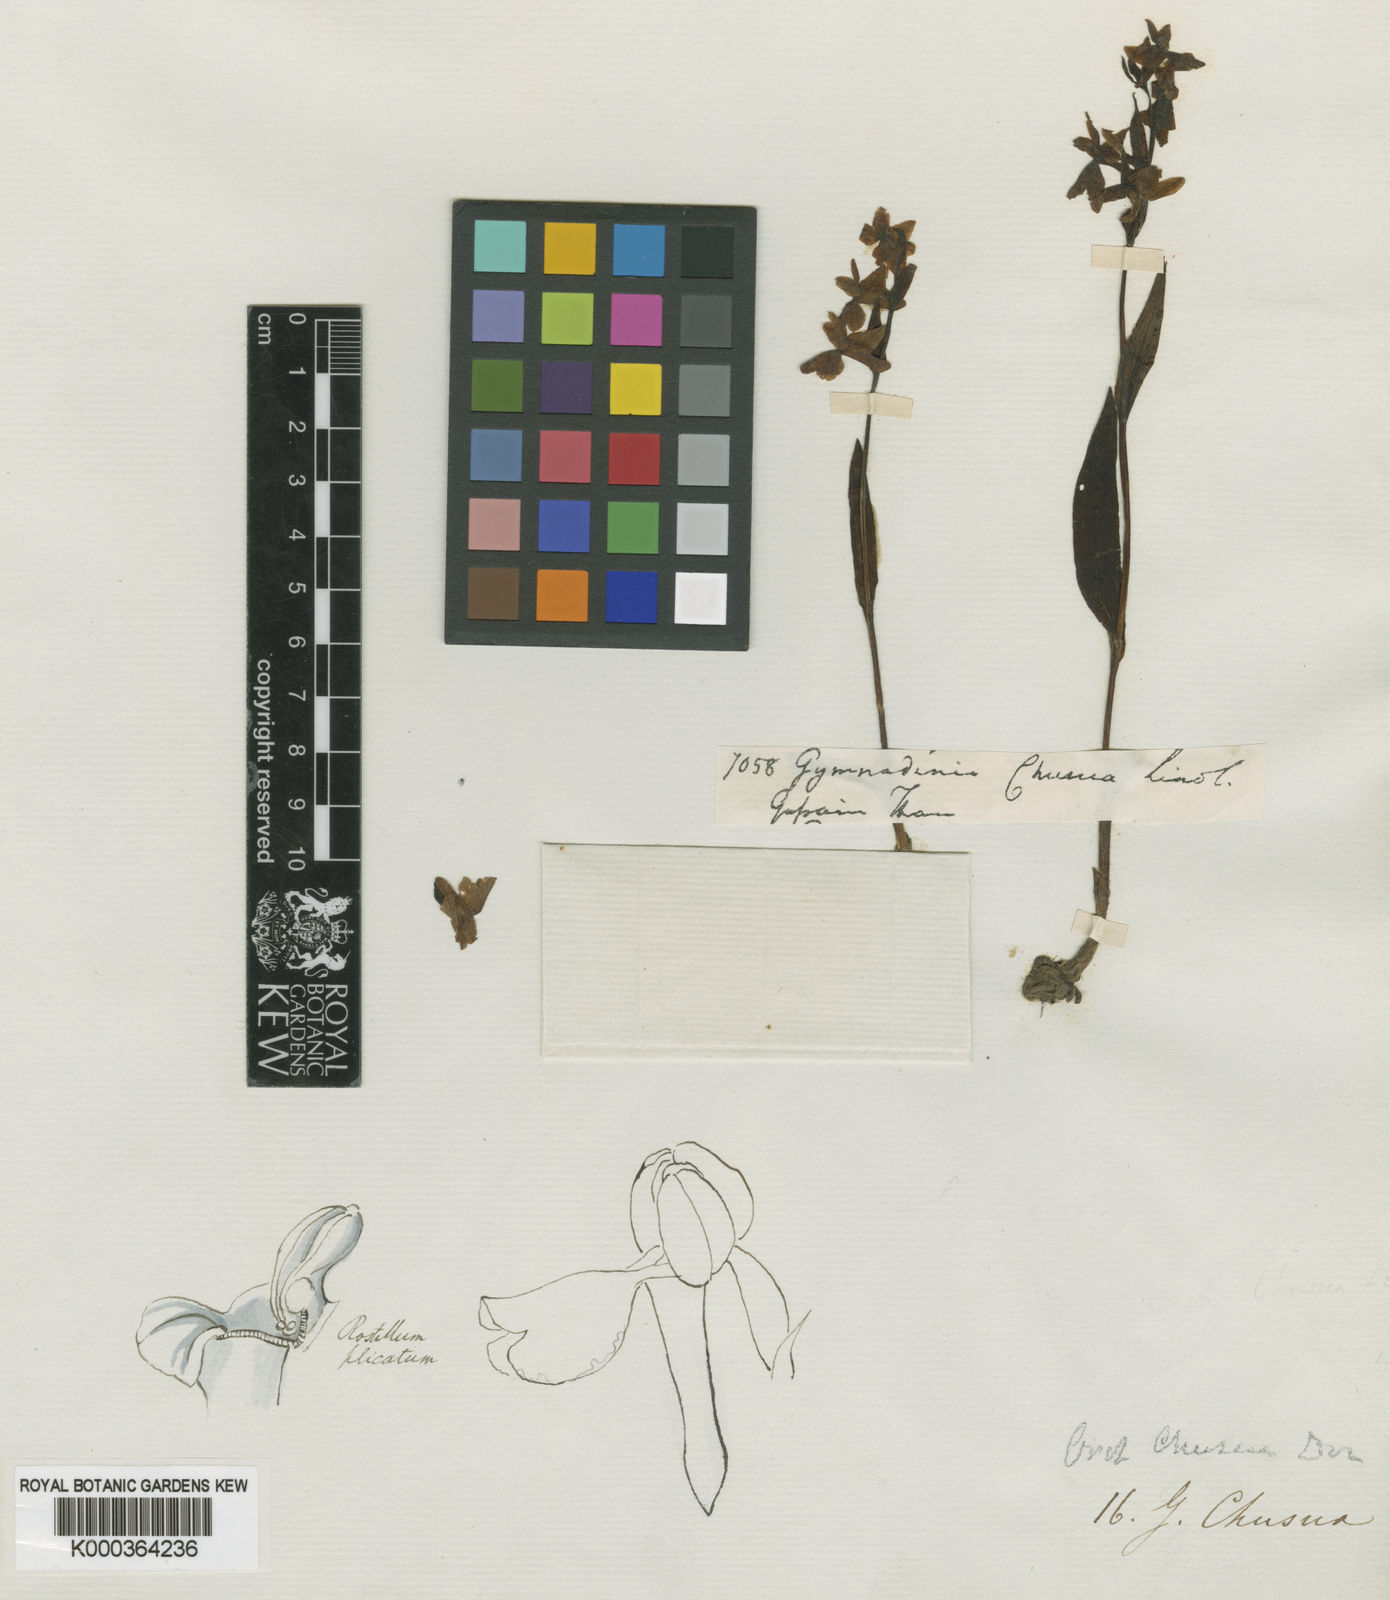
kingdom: Plantae
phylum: Tracheophyta
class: Liliopsida
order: Asparagales
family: Orchidaceae
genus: Hemipilia
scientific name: Hemipilia
